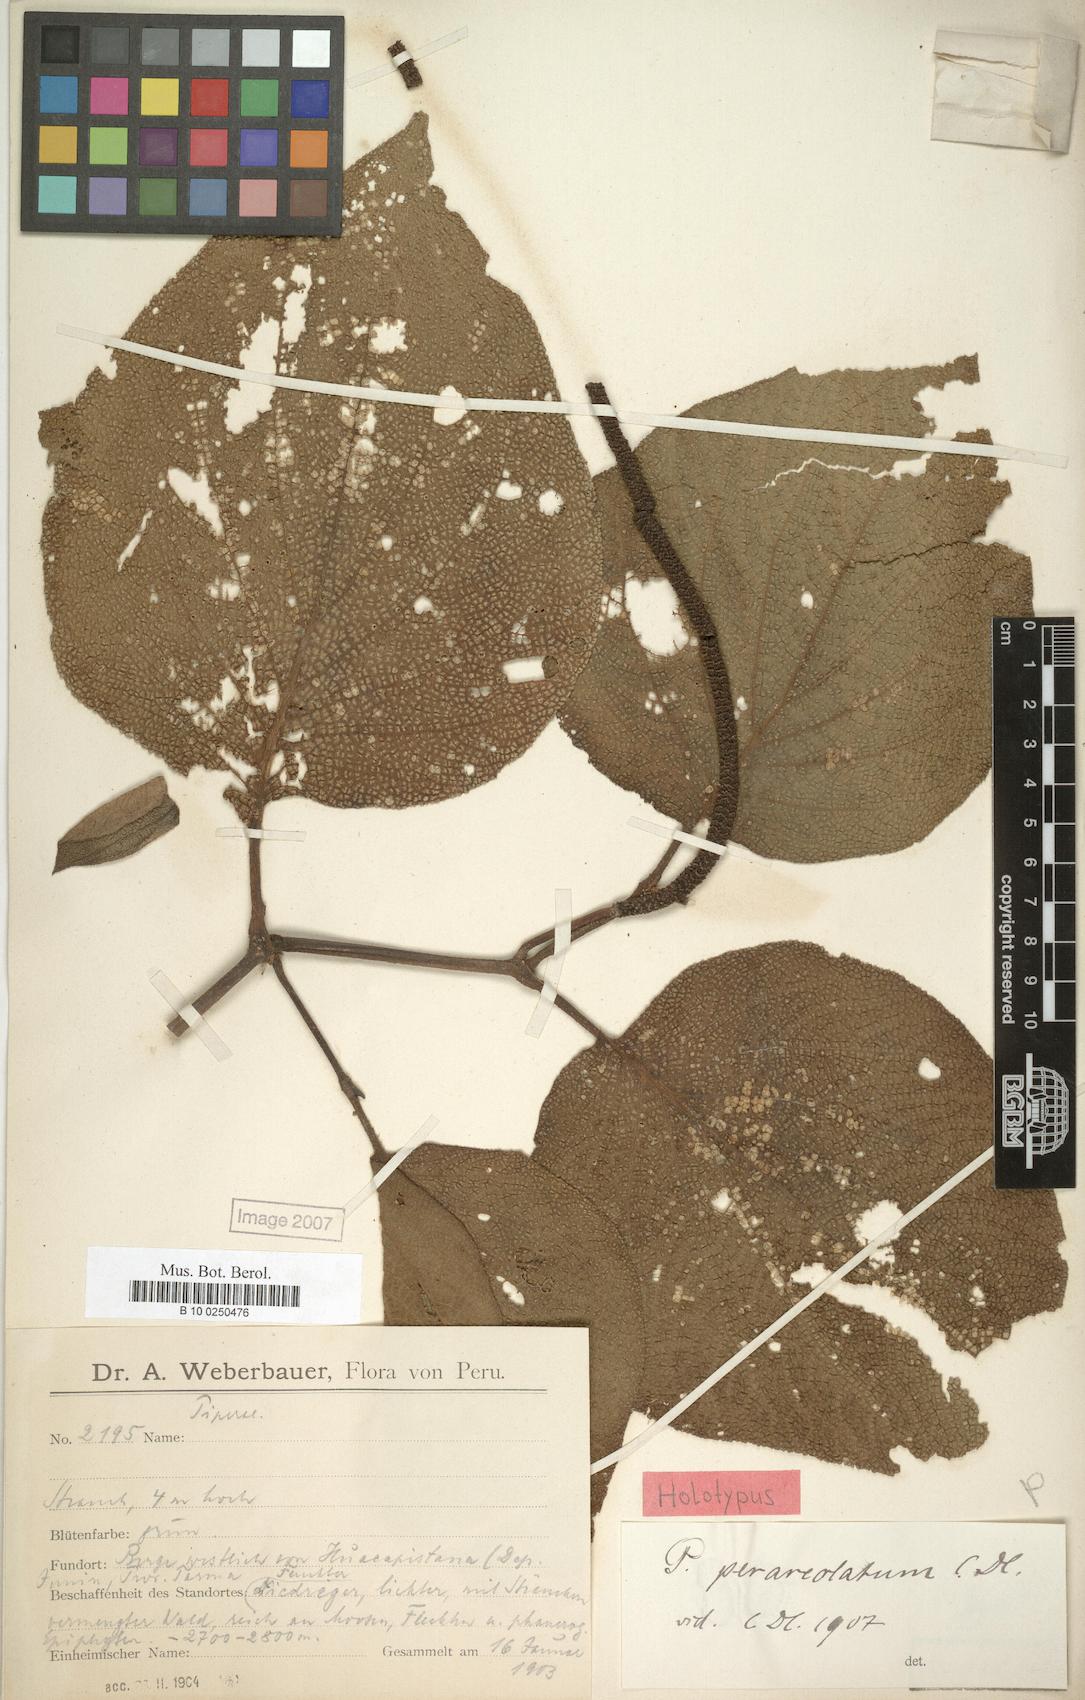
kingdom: Plantae
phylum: Tracheophyta
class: Magnoliopsida
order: Piperales
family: Piperaceae
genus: Piper
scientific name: Piper perareolatum
